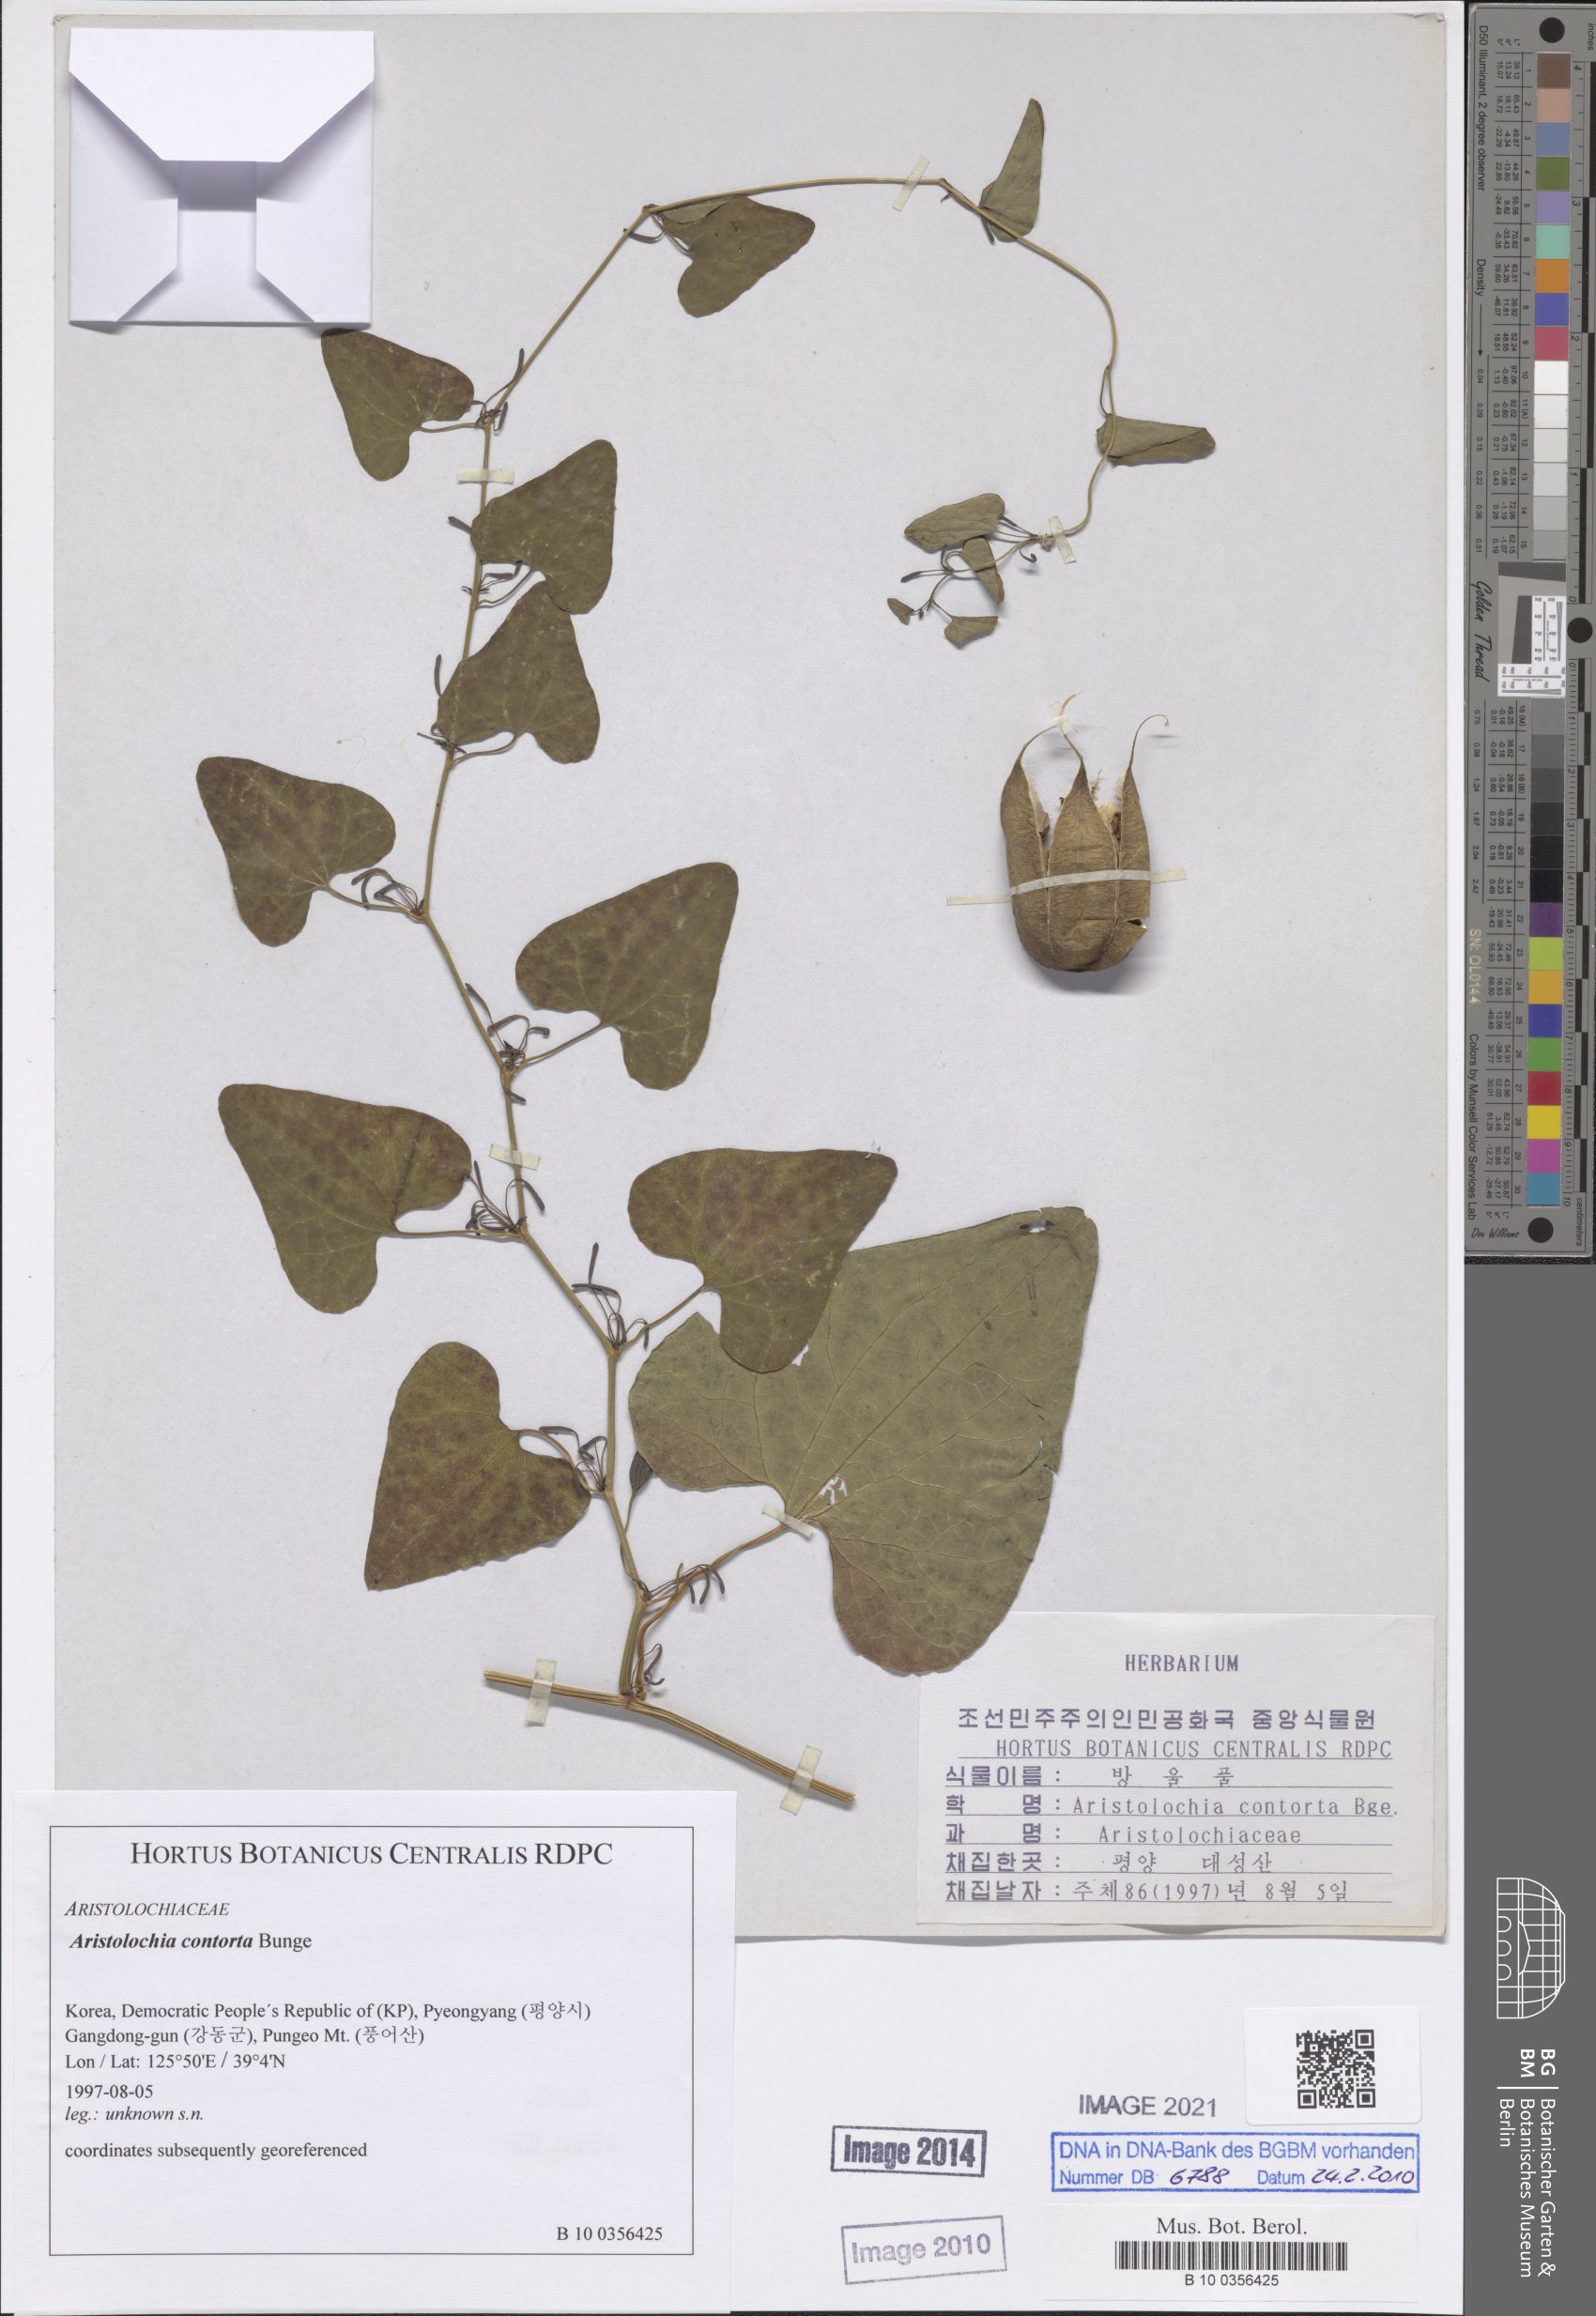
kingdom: Plantae
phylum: Tracheophyta
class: Magnoliopsida
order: Piperales
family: Aristolochiaceae
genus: Aristolochia
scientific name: Aristolochia contorta
